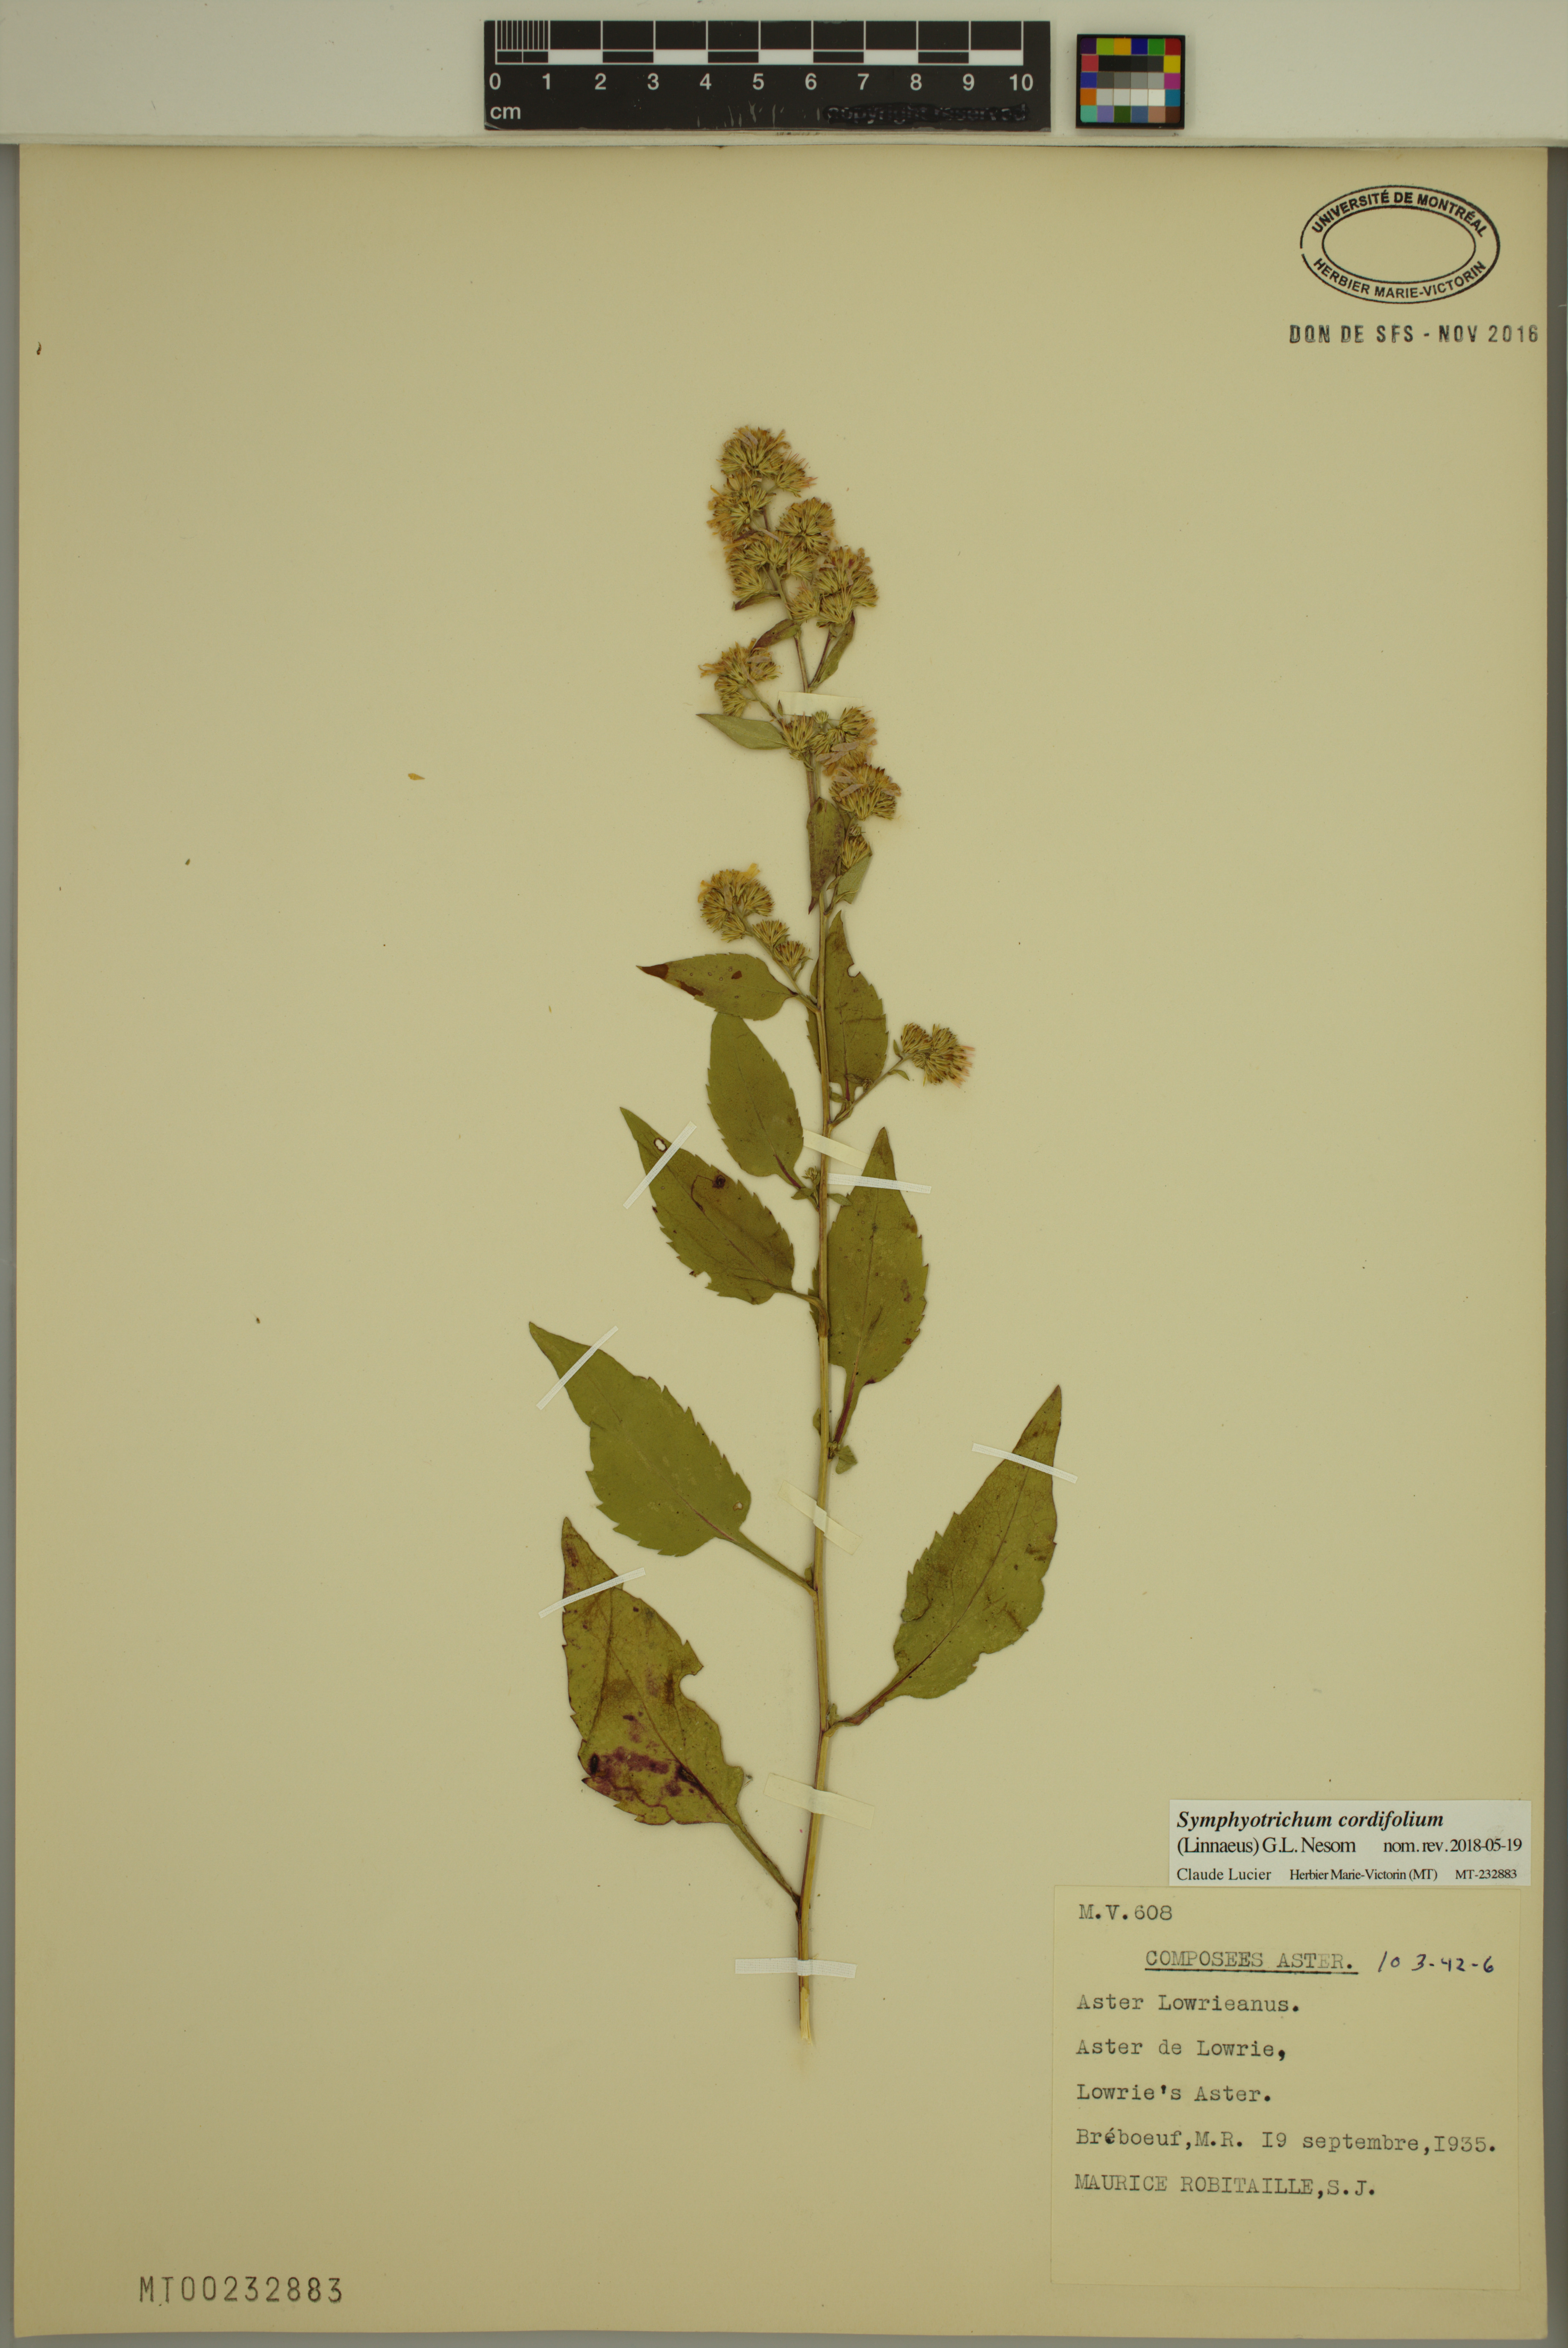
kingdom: Plantae
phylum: Tracheophyta
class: Magnoliopsida
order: Asterales
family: Asteraceae
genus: Symphyotrichum
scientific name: Symphyotrichum cordifolium
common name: Beeweed
